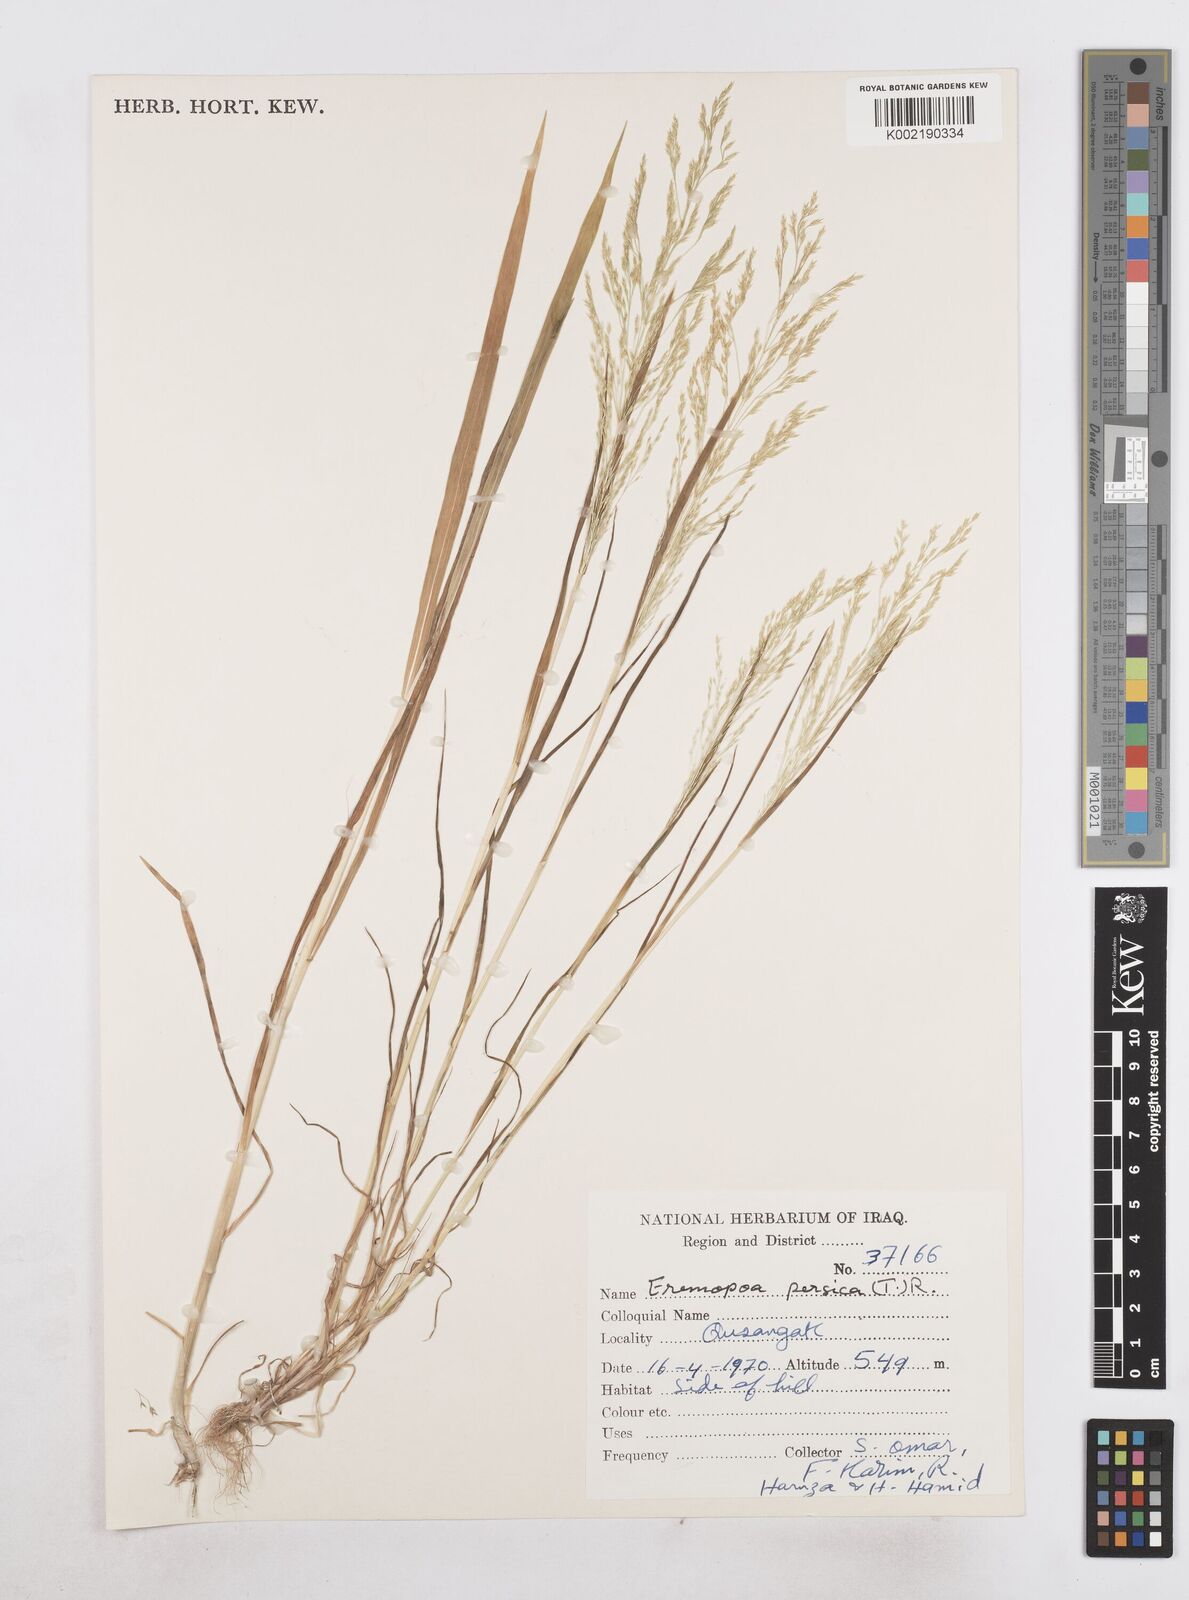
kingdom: Plantae
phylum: Tracheophyta
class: Liliopsida
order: Poales
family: Poaceae
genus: Poa
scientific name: Poa persica
